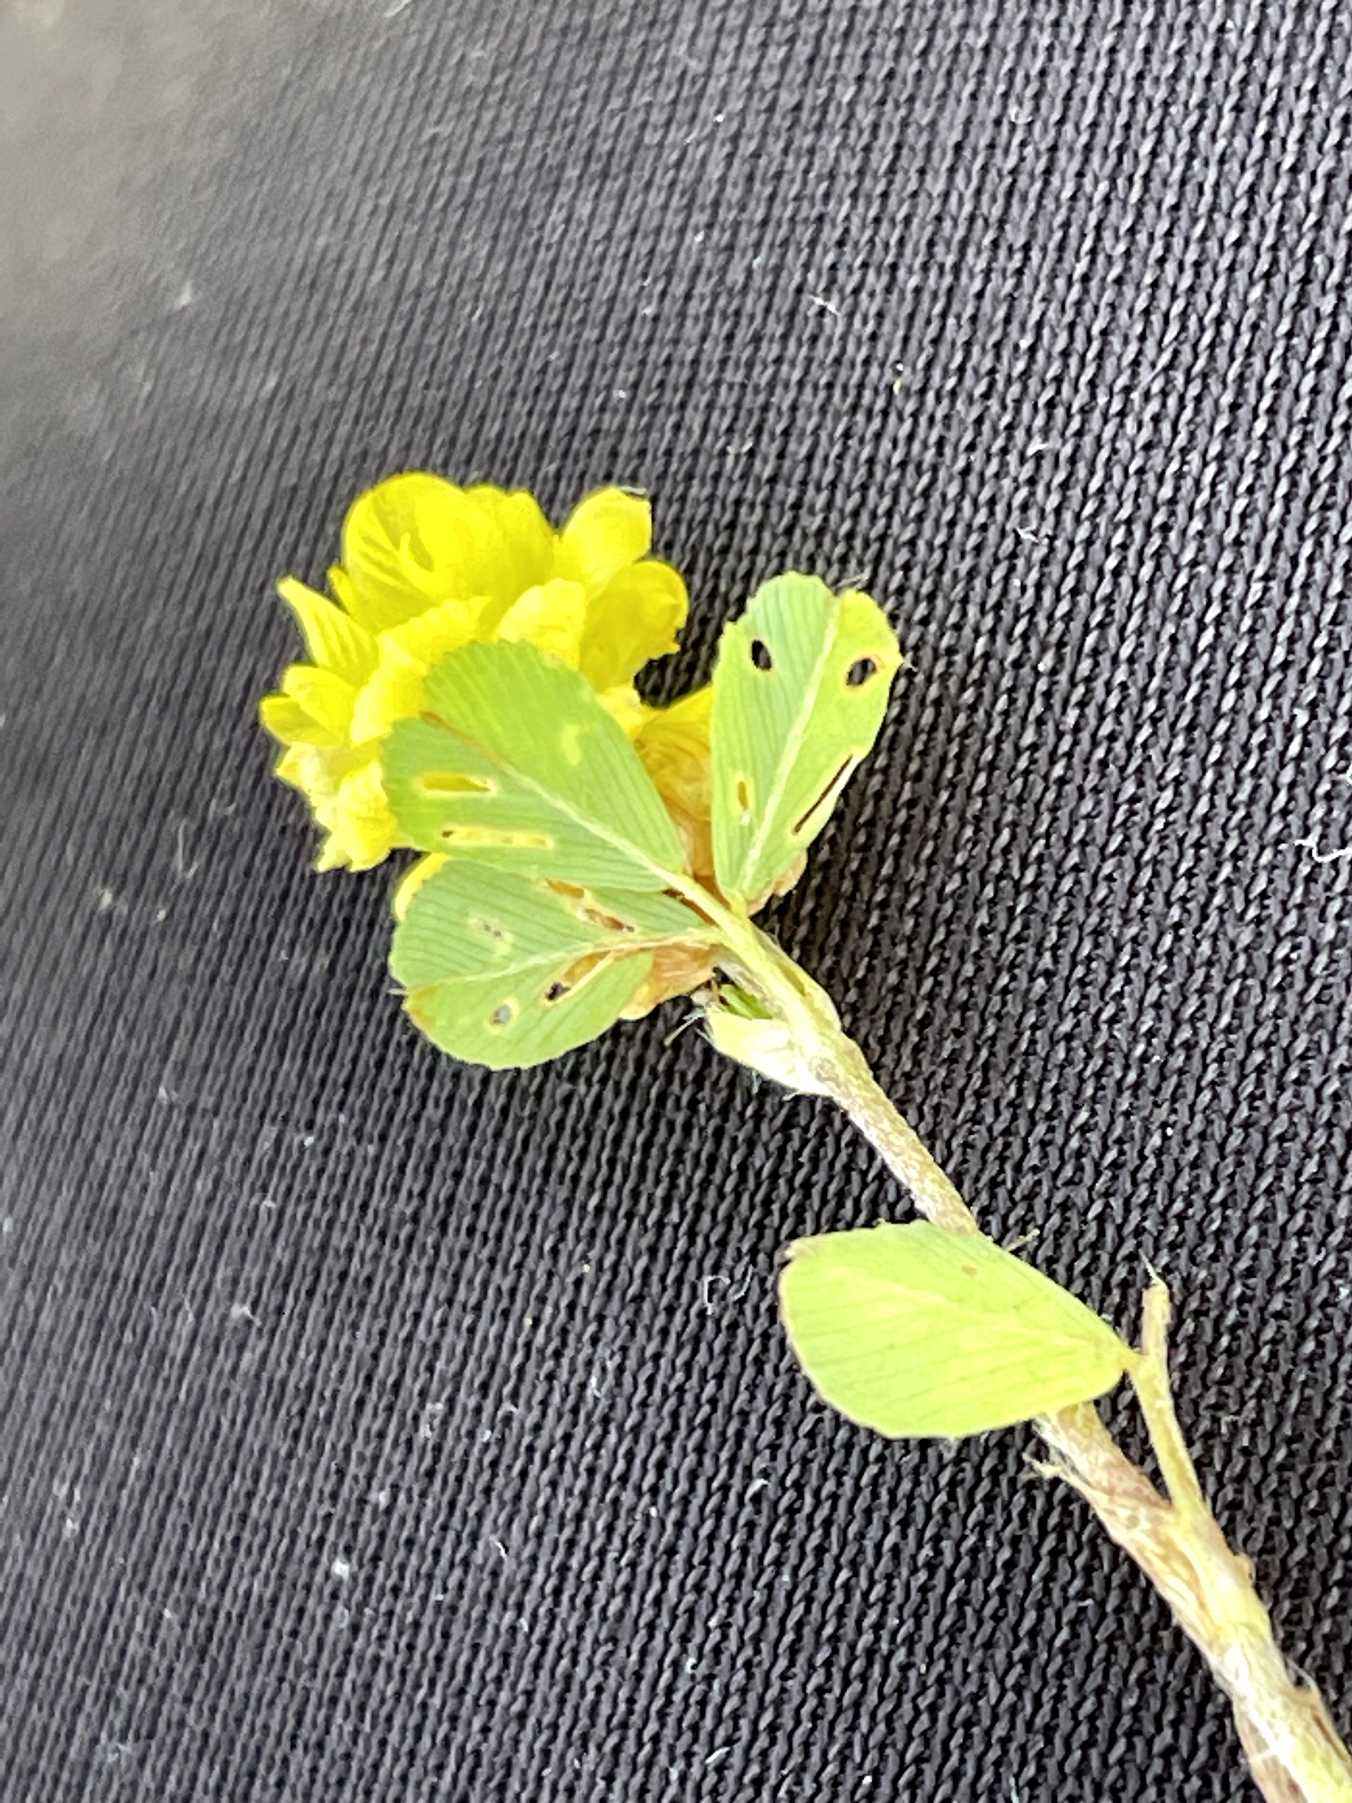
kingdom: Plantae
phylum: Tracheophyta
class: Magnoliopsida
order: Fabales
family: Fabaceae
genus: Trifolium
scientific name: Trifolium campestre
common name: Gul kløver
